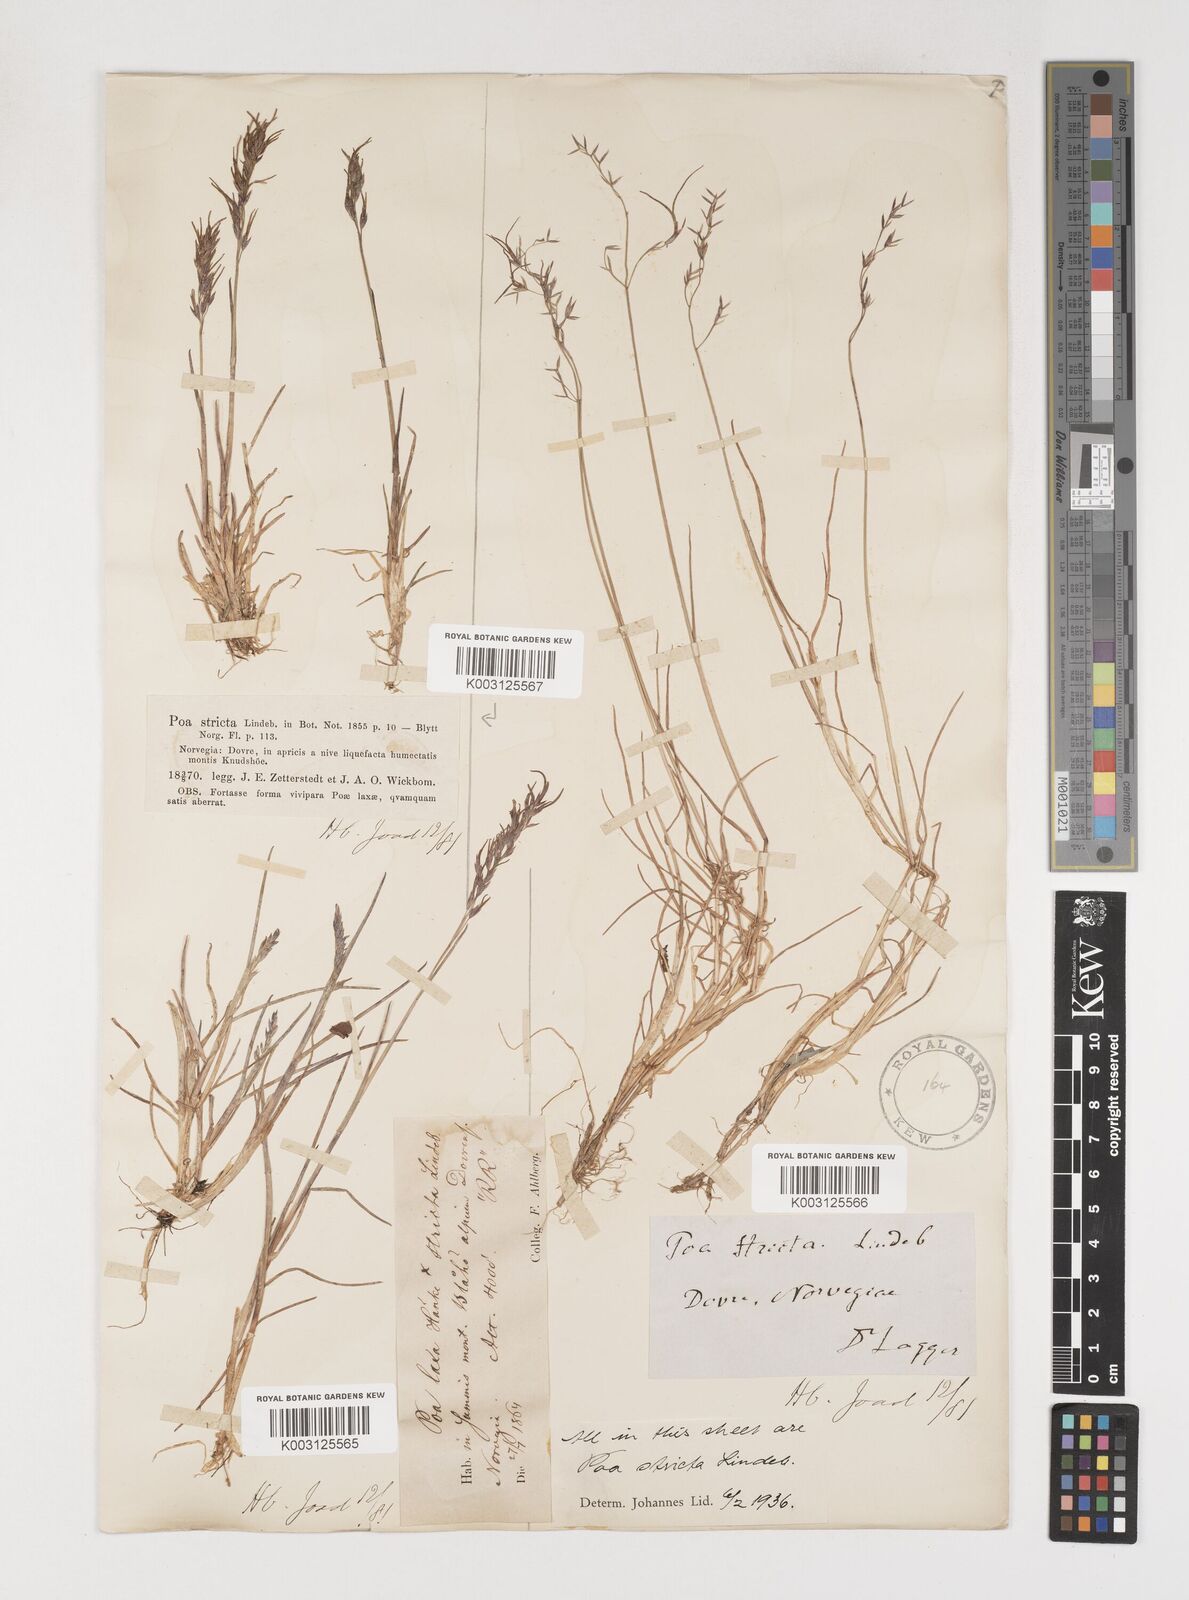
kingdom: Plantae
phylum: Tracheophyta
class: Liliopsida
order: Poales
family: Poaceae
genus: Poa
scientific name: Poa arctica
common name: Arctic bluegrass
